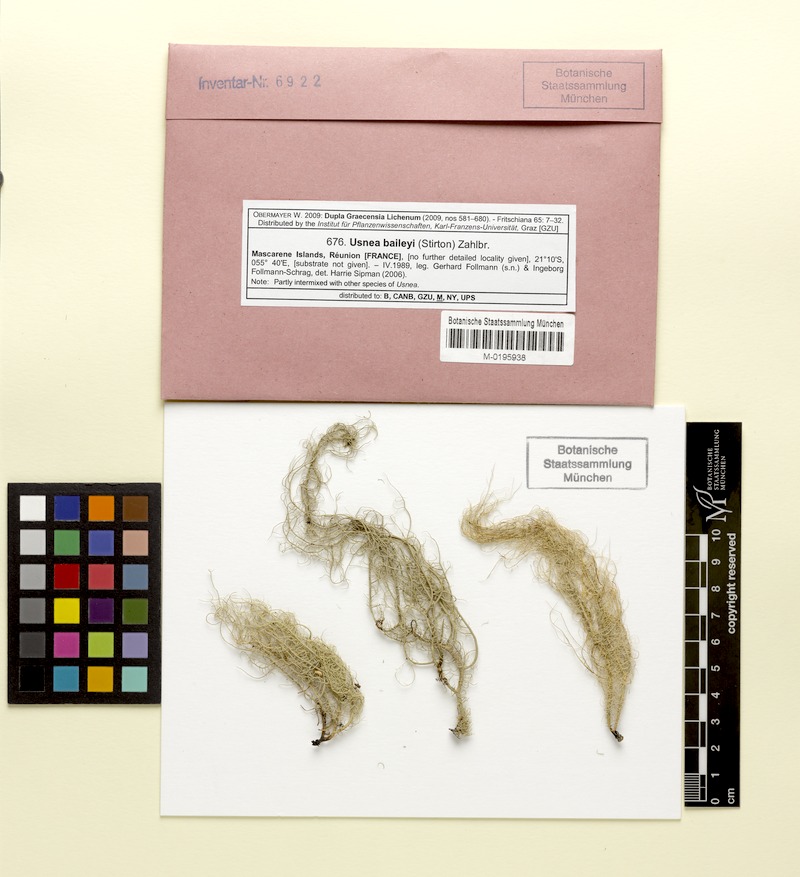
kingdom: Fungi
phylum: Ascomycota
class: Lecanoromycetes
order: Lecanorales
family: Parmeliaceae
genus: Eumitria
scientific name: Eumitria baileyi
